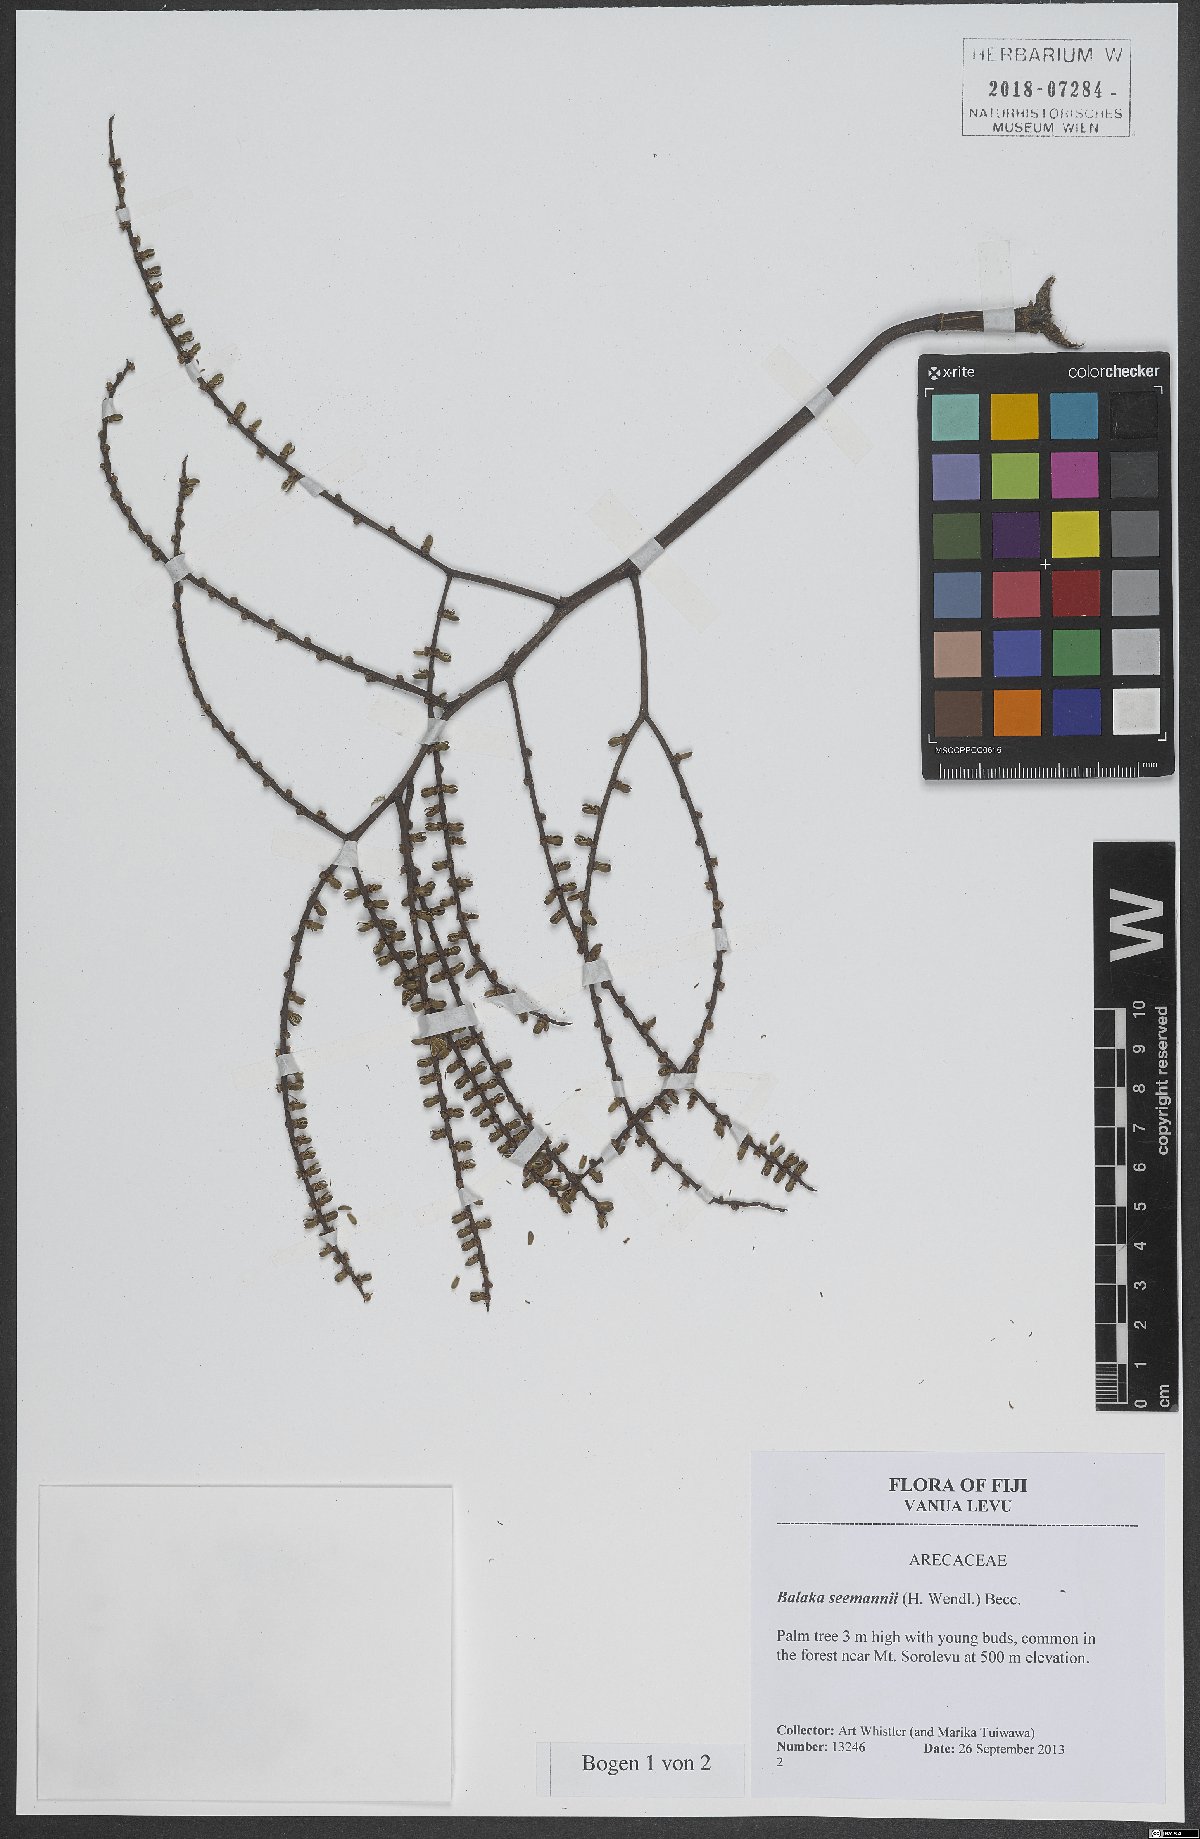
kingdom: Plantae
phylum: Tracheophyta
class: Liliopsida
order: Arecales
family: Arecaceae
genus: Balaka
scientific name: Balaka seemannii
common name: Balaka palm
